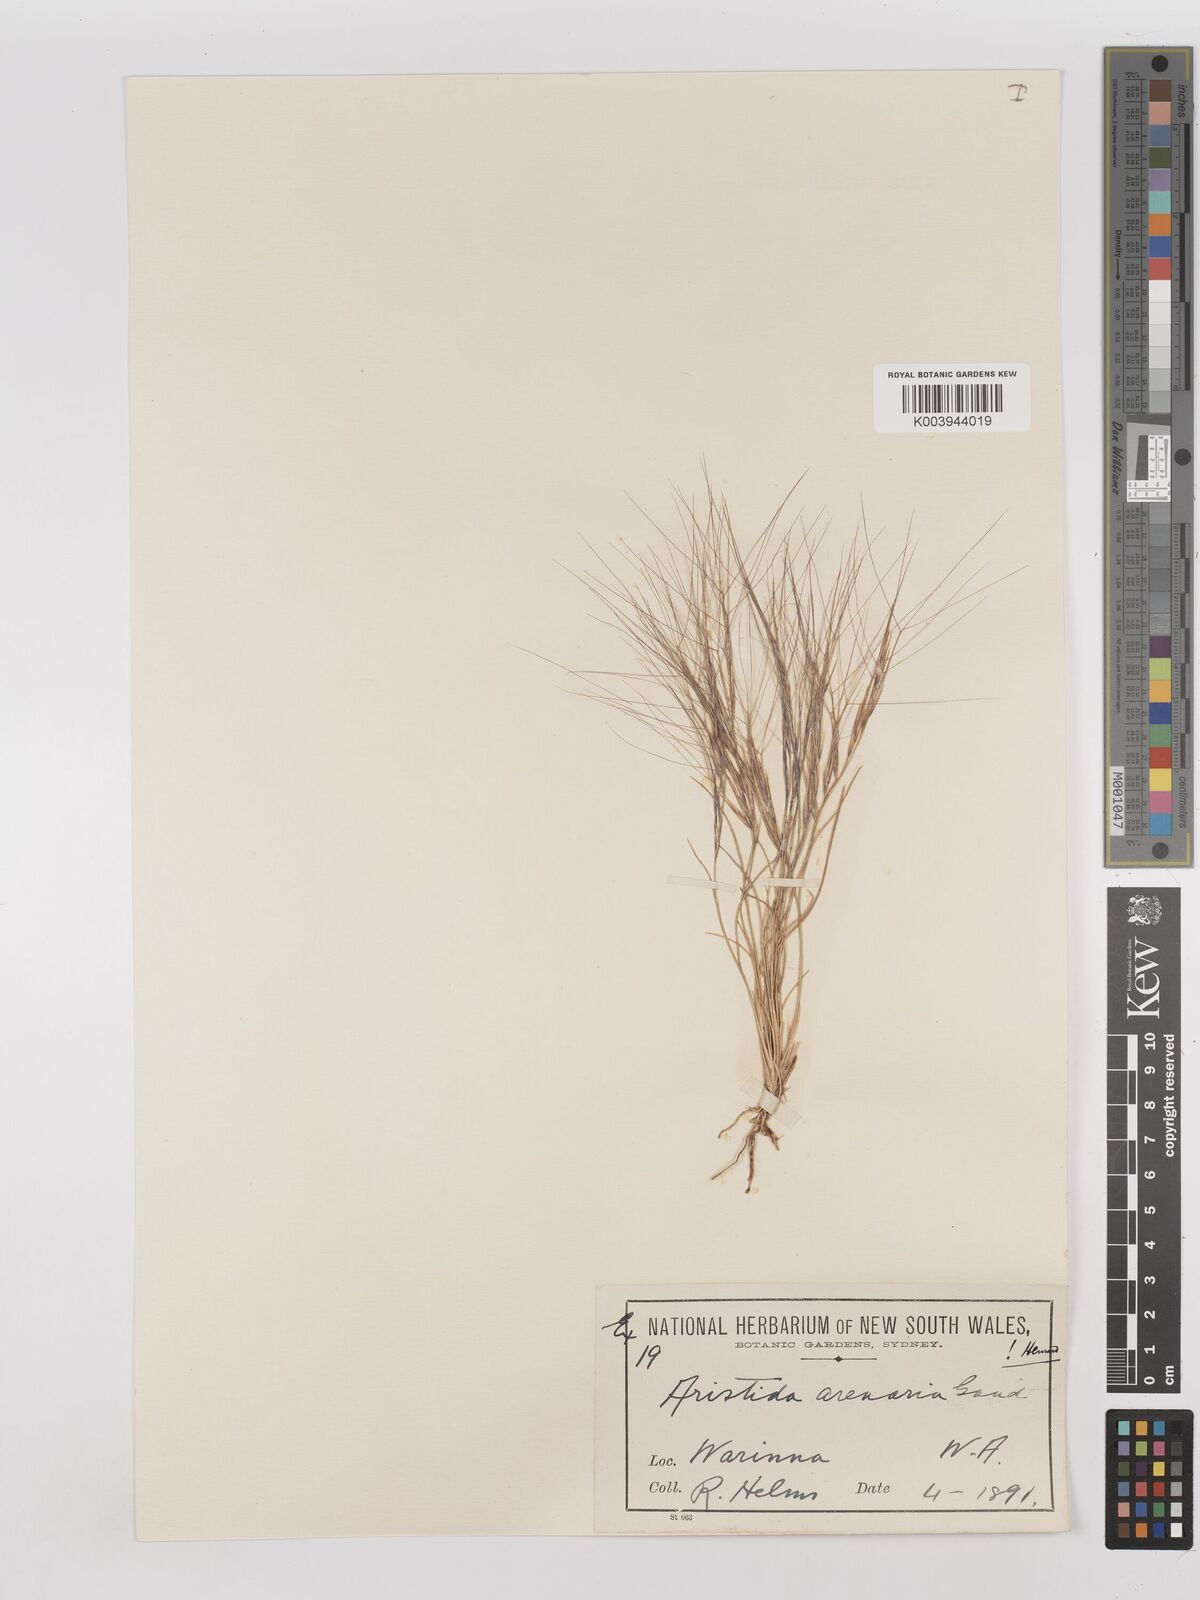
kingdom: Plantae
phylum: Tracheophyta
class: Liliopsida
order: Poales
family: Poaceae
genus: Aristida
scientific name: Aristida contorta
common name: Bunch kerosene grass
